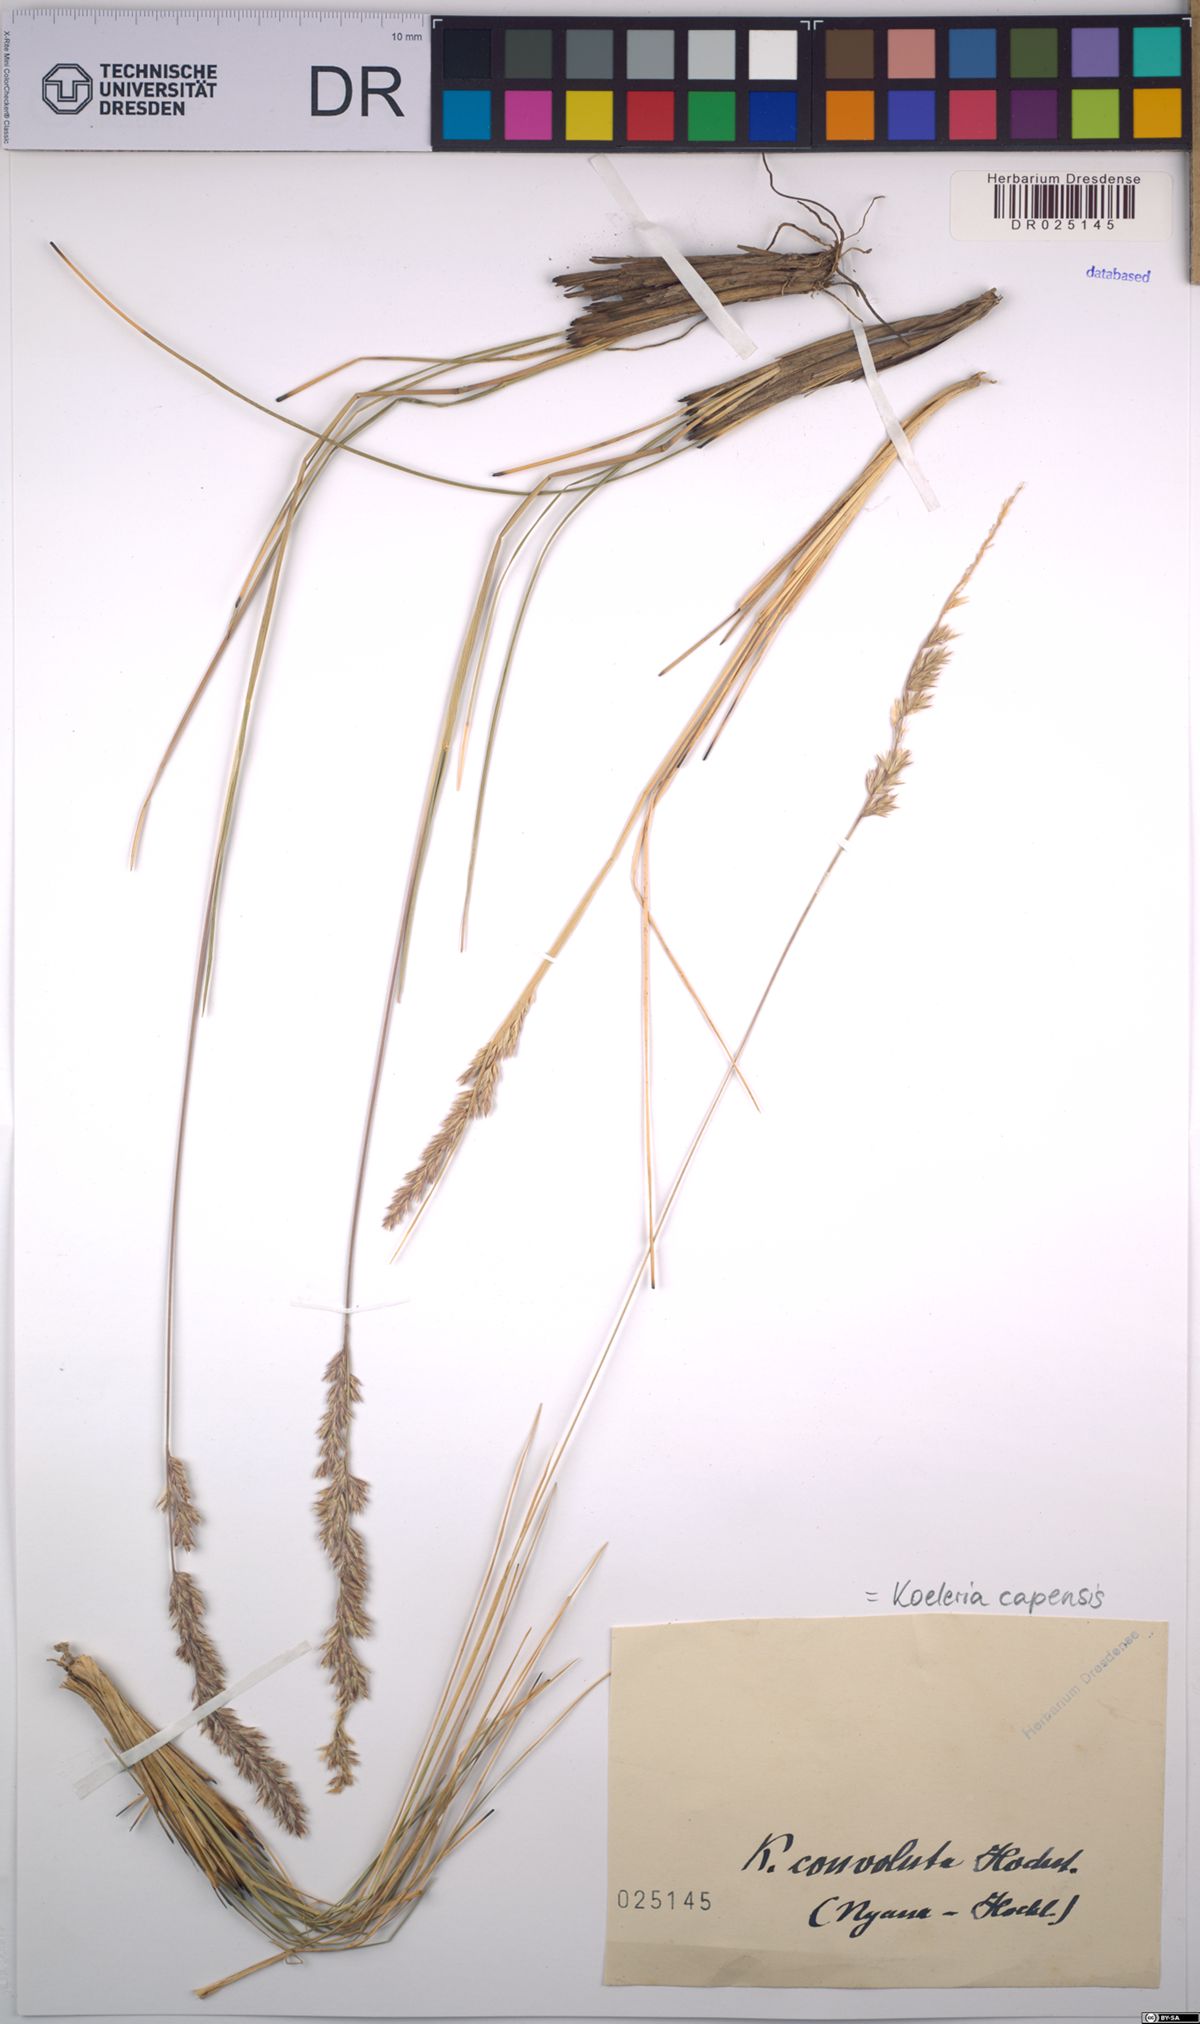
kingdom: Plantae
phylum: Tracheophyta
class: Liliopsida
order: Poales
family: Poaceae
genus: Koeleria
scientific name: Koeleria capensis
